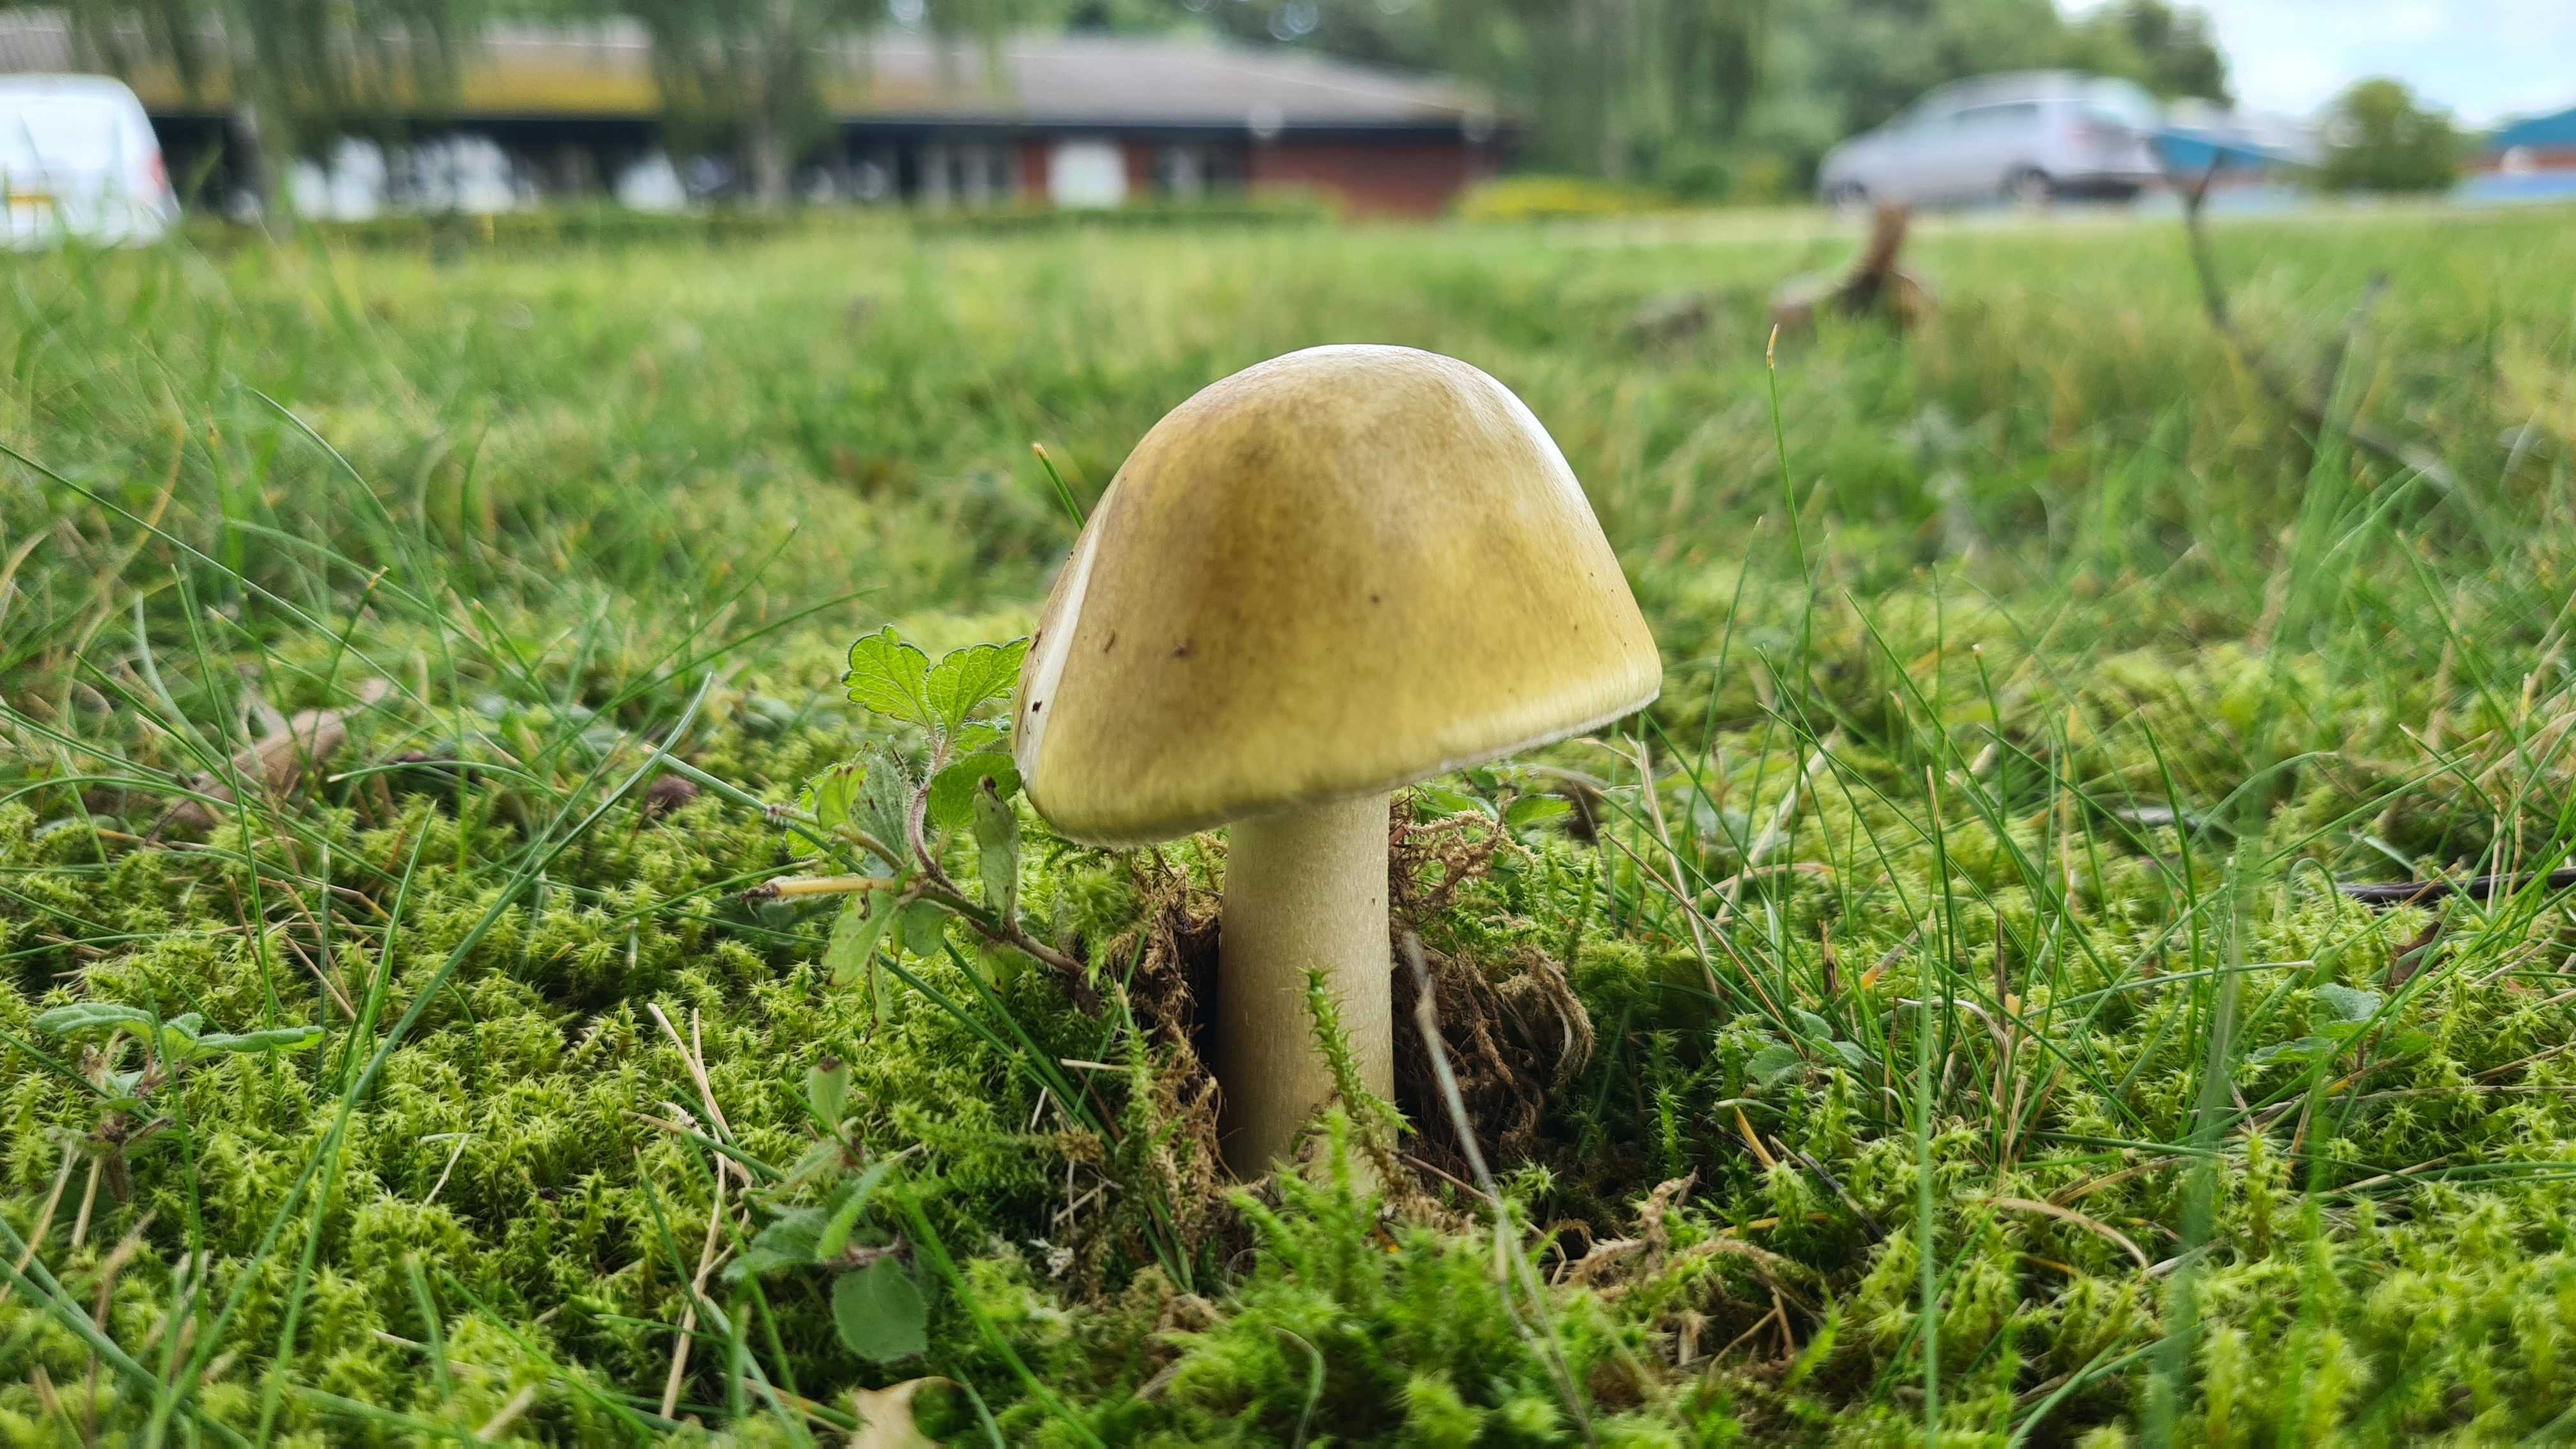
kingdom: Fungi
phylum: Basidiomycota
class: Agaricomycetes
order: Agaricales
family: Amanitaceae
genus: Amanita
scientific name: Amanita phalloides
